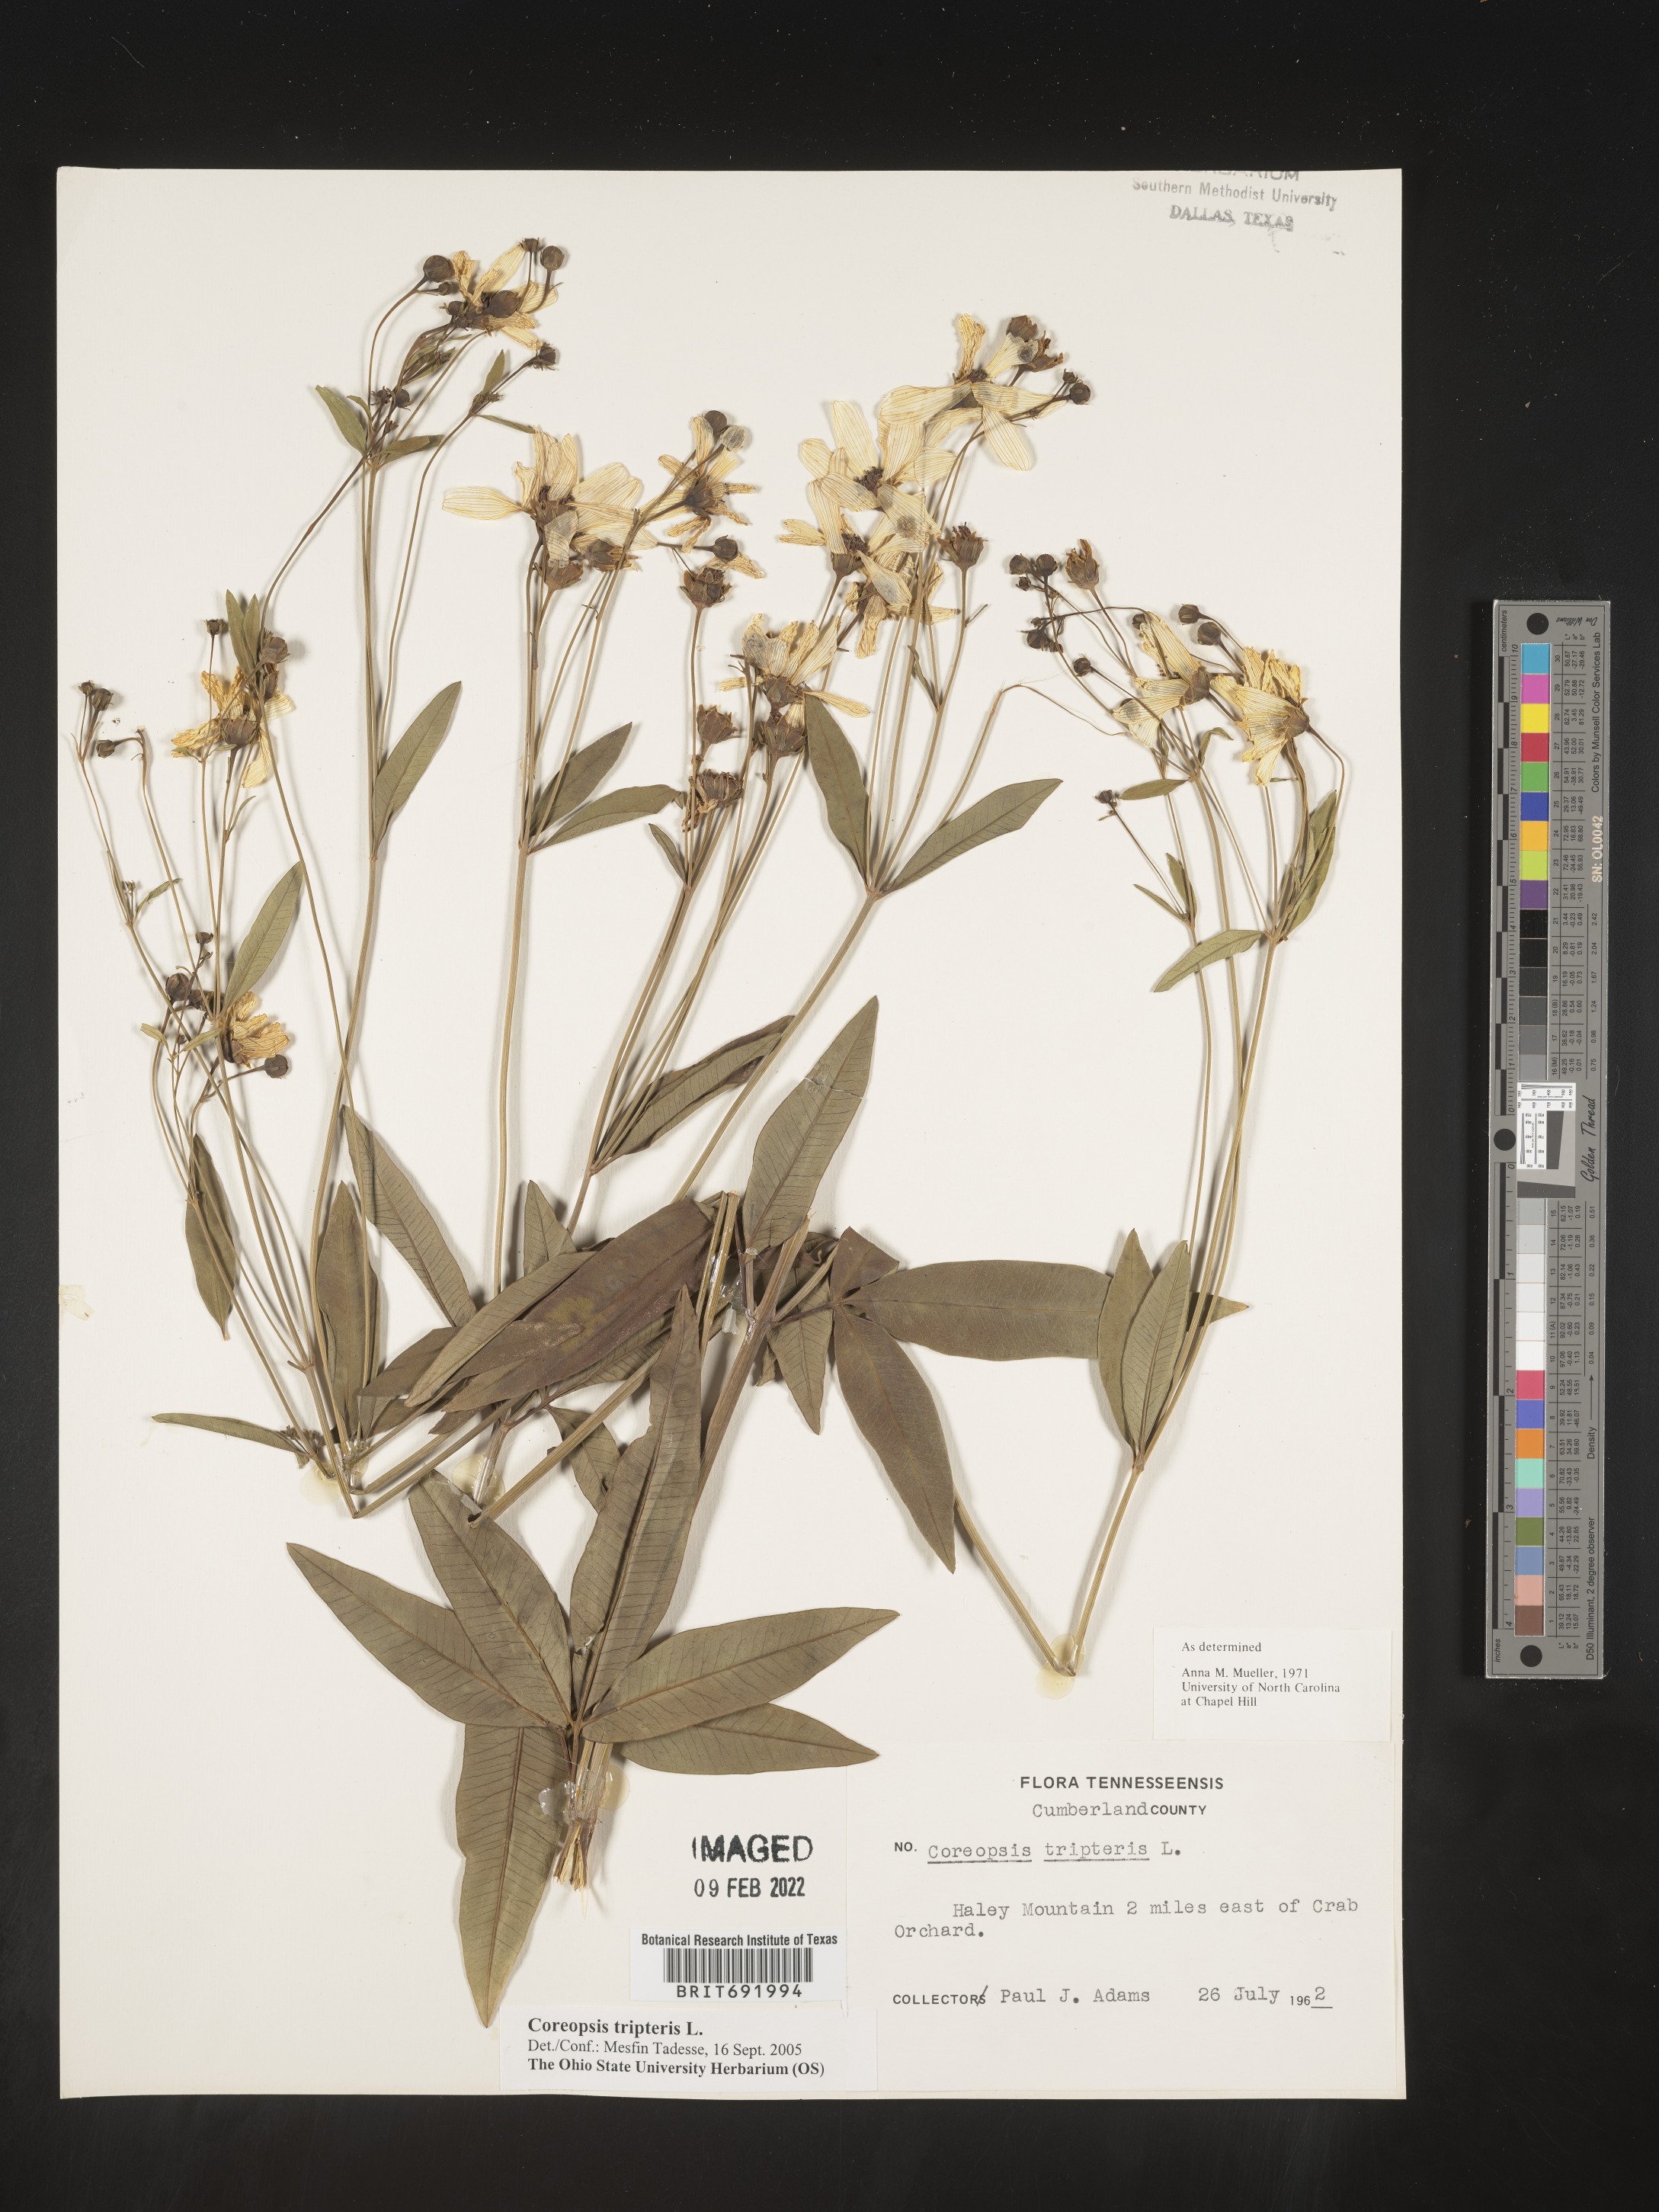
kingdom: Plantae
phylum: Tracheophyta
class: Magnoliopsida
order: Asterales
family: Asteraceae
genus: Coreopsis
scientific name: Coreopsis tripteris
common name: Tall coreopsis
